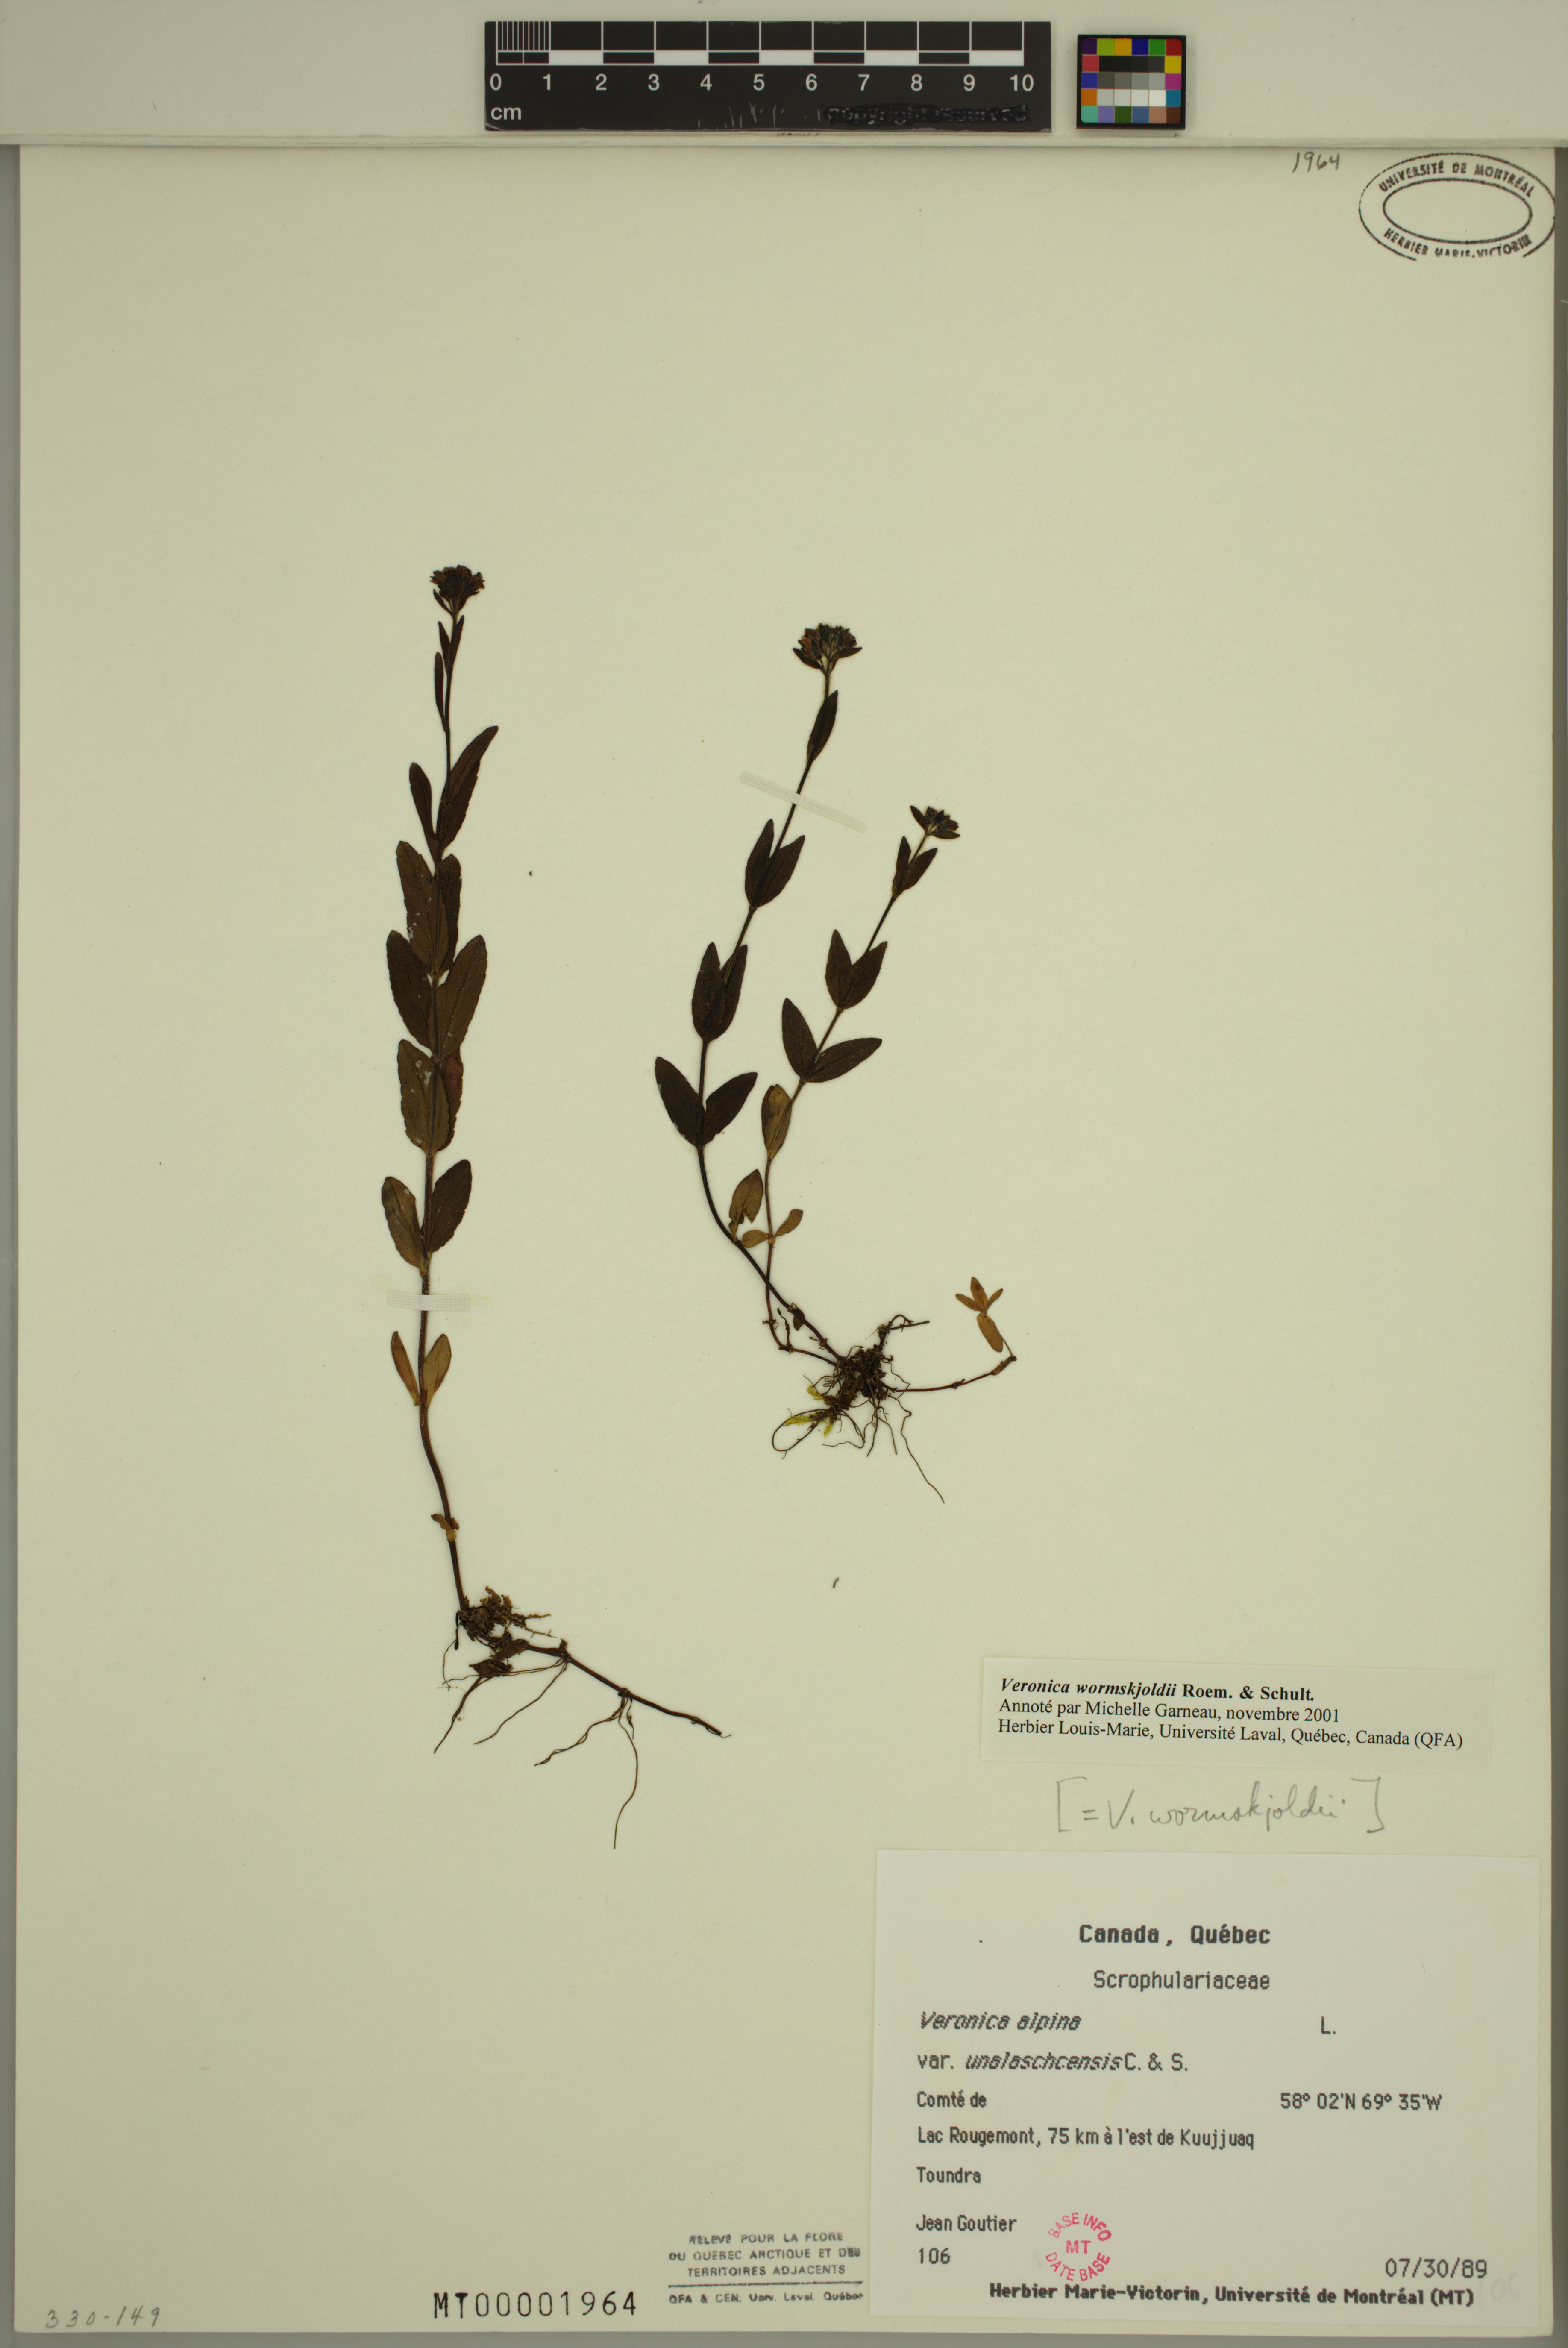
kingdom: Plantae
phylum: Tracheophyta
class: Magnoliopsida
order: Lamiales
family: Plantaginaceae
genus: Veronica
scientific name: Veronica wormskjoldii
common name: American alpine speedwell
